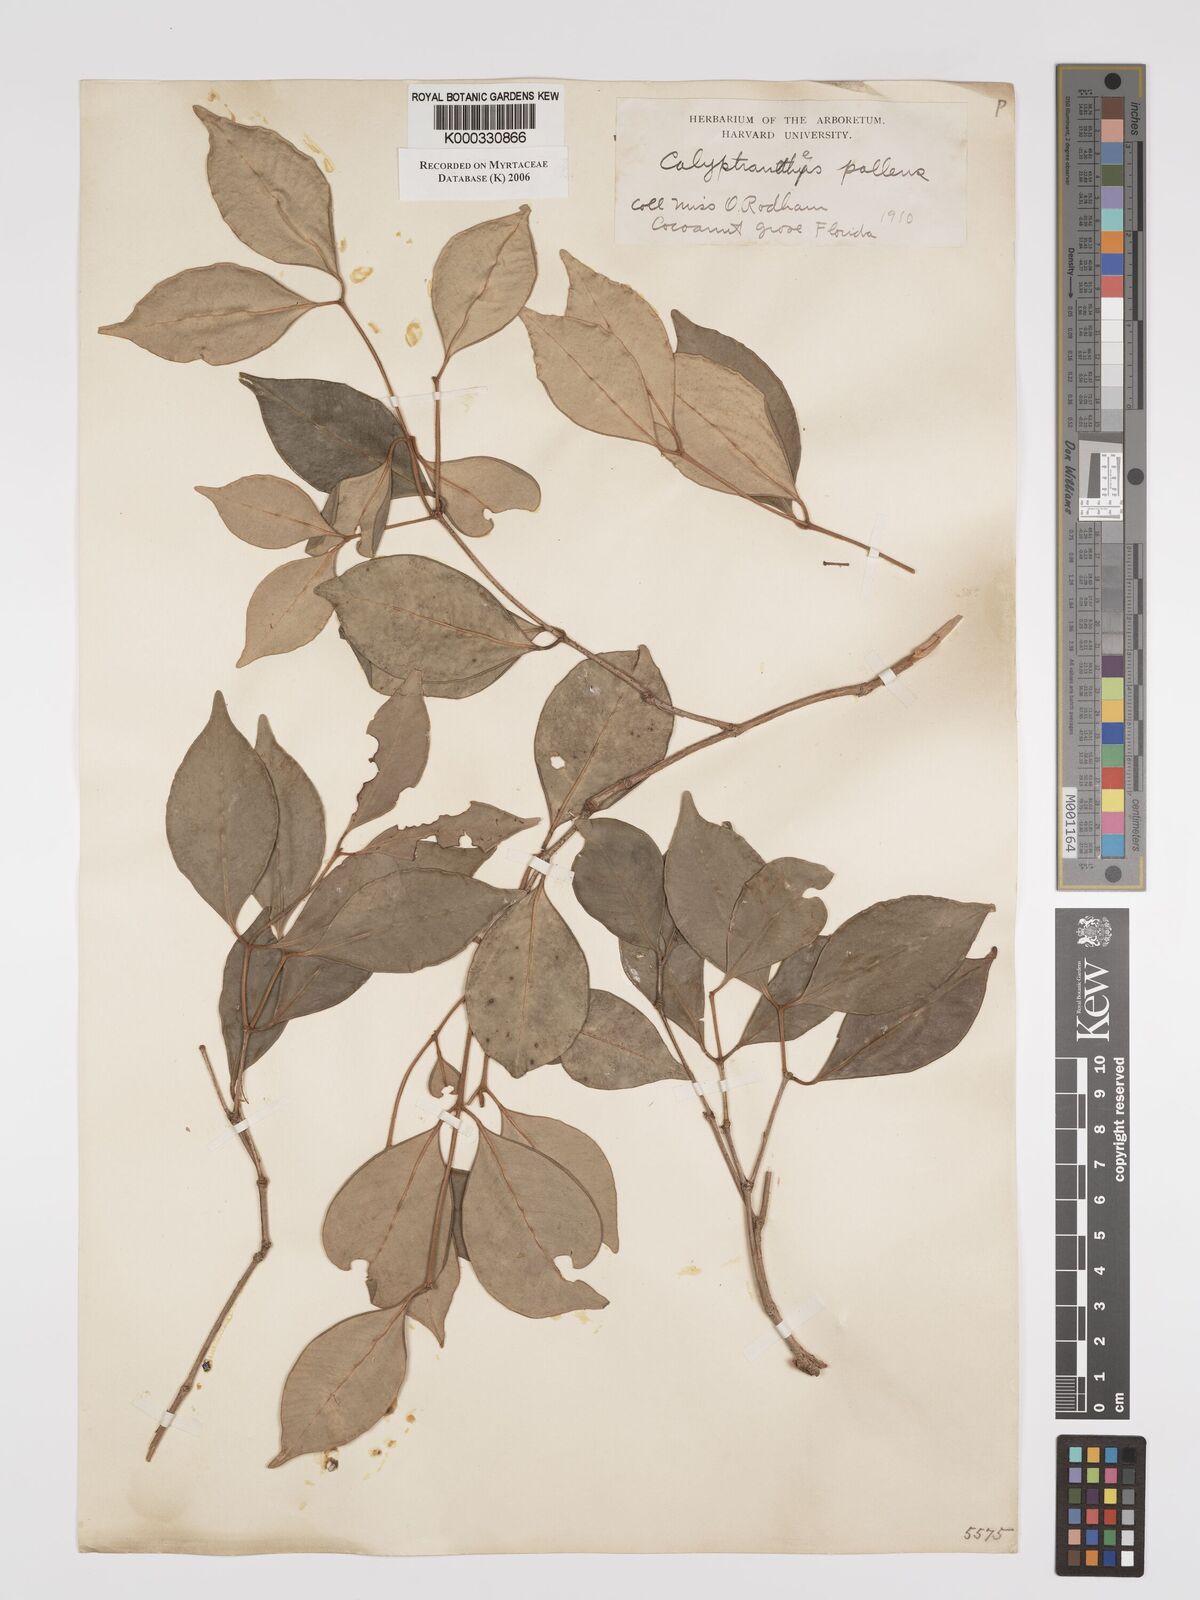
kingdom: Plantae
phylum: Tracheophyta
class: Magnoliopsida
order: Myrtales
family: Myrtaceae
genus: Myrcia
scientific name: Myrcia neopallens
